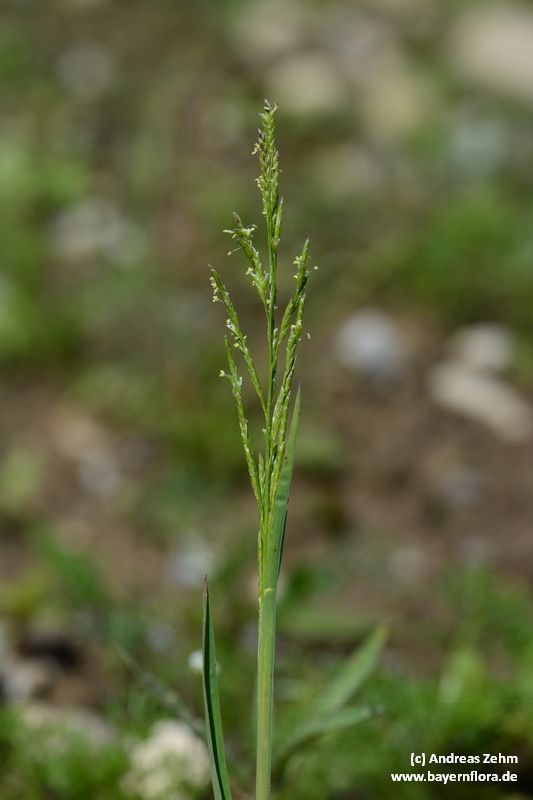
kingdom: Plantae
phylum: Tracheophyta
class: Liliopsida
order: Poales
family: Poaceae
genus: Glyceria
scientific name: Glyceria notata
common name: Plicate sweet-grass
